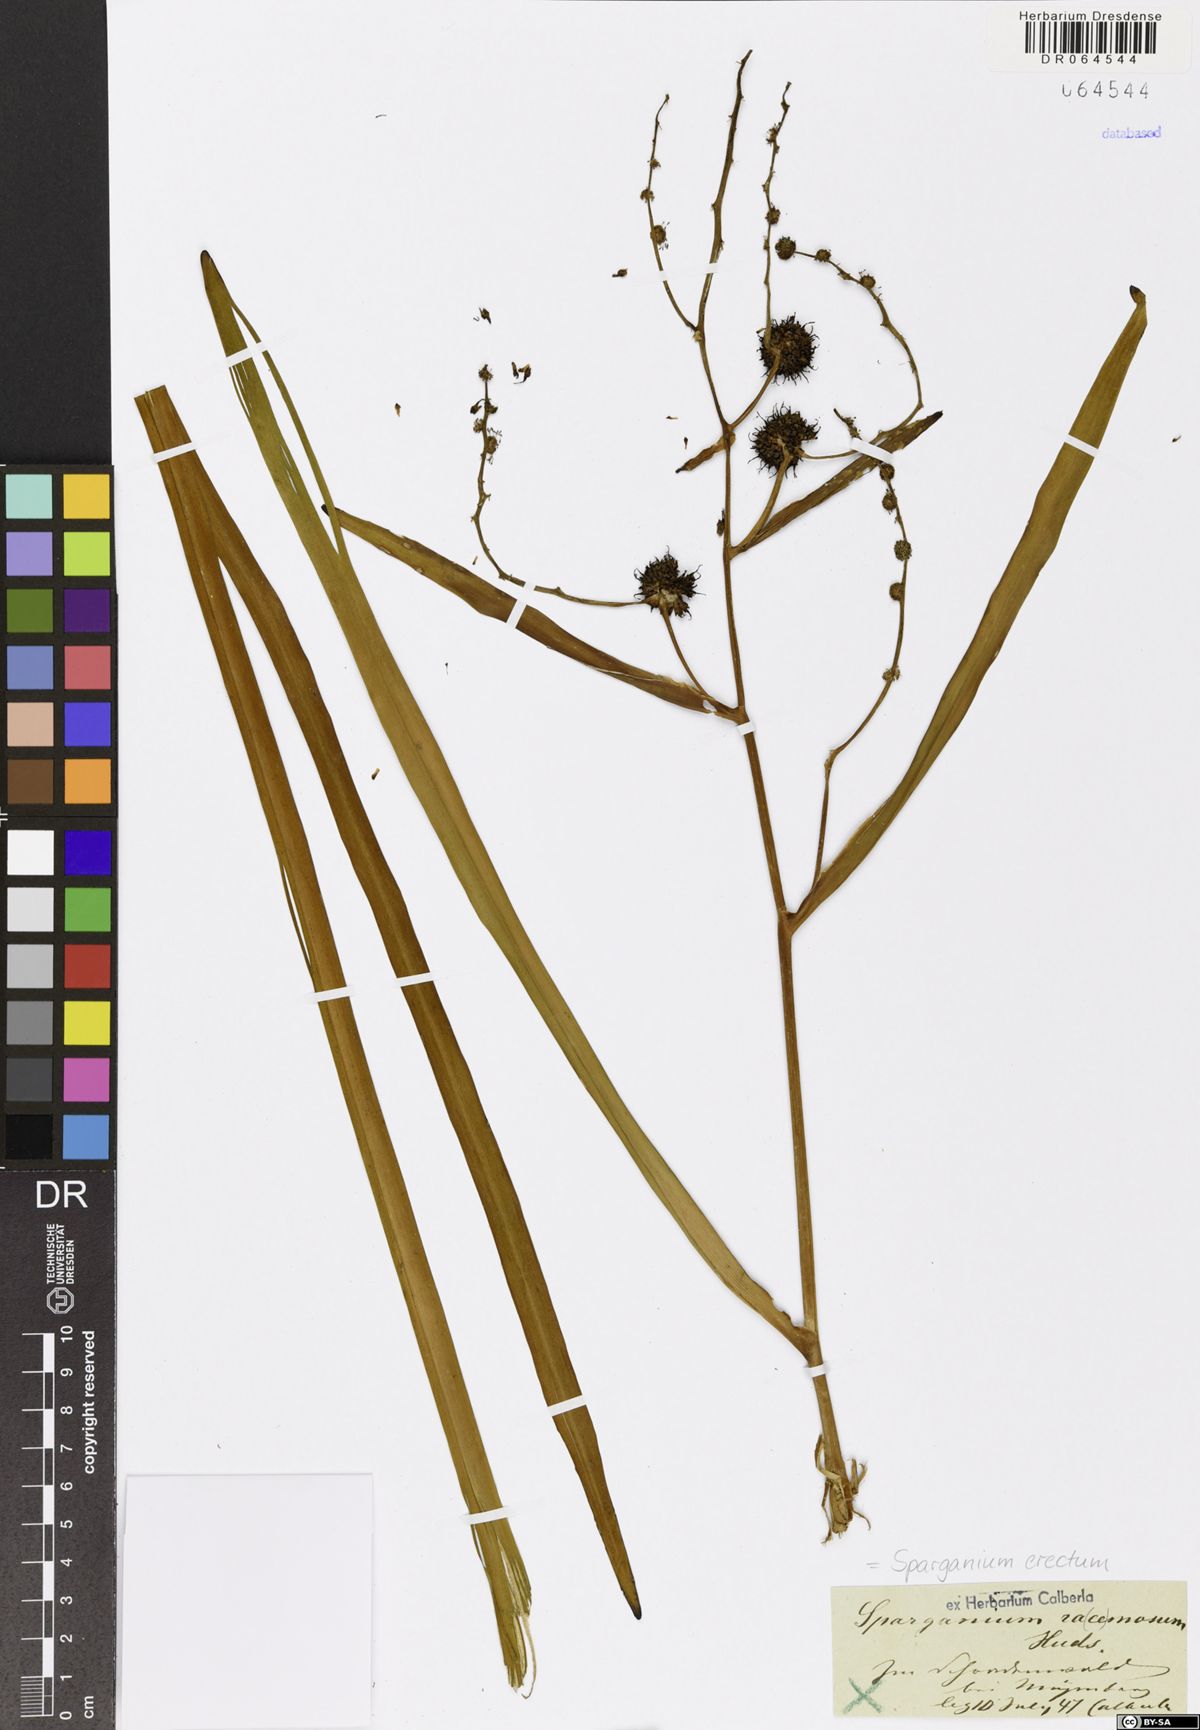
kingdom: Plantae
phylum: Tracheophyta
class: Liliopsida
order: Poales
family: Typhaceae
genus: Sparganium
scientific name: Sparganium erectum
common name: Branched bur-reed
